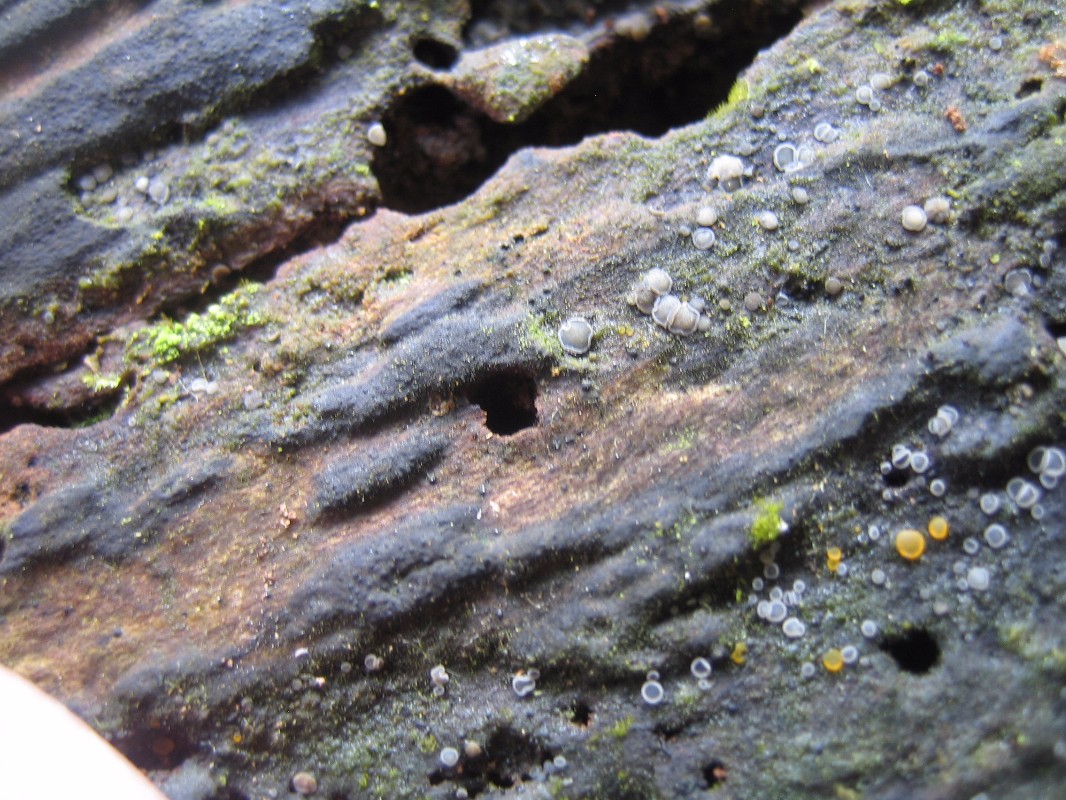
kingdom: Fungi
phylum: Ascomycota
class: Leotiomycetes
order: Helotiales
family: Mollisiaceae
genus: Mollisia
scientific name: Mollisia cinerea
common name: almindelig gråskive
